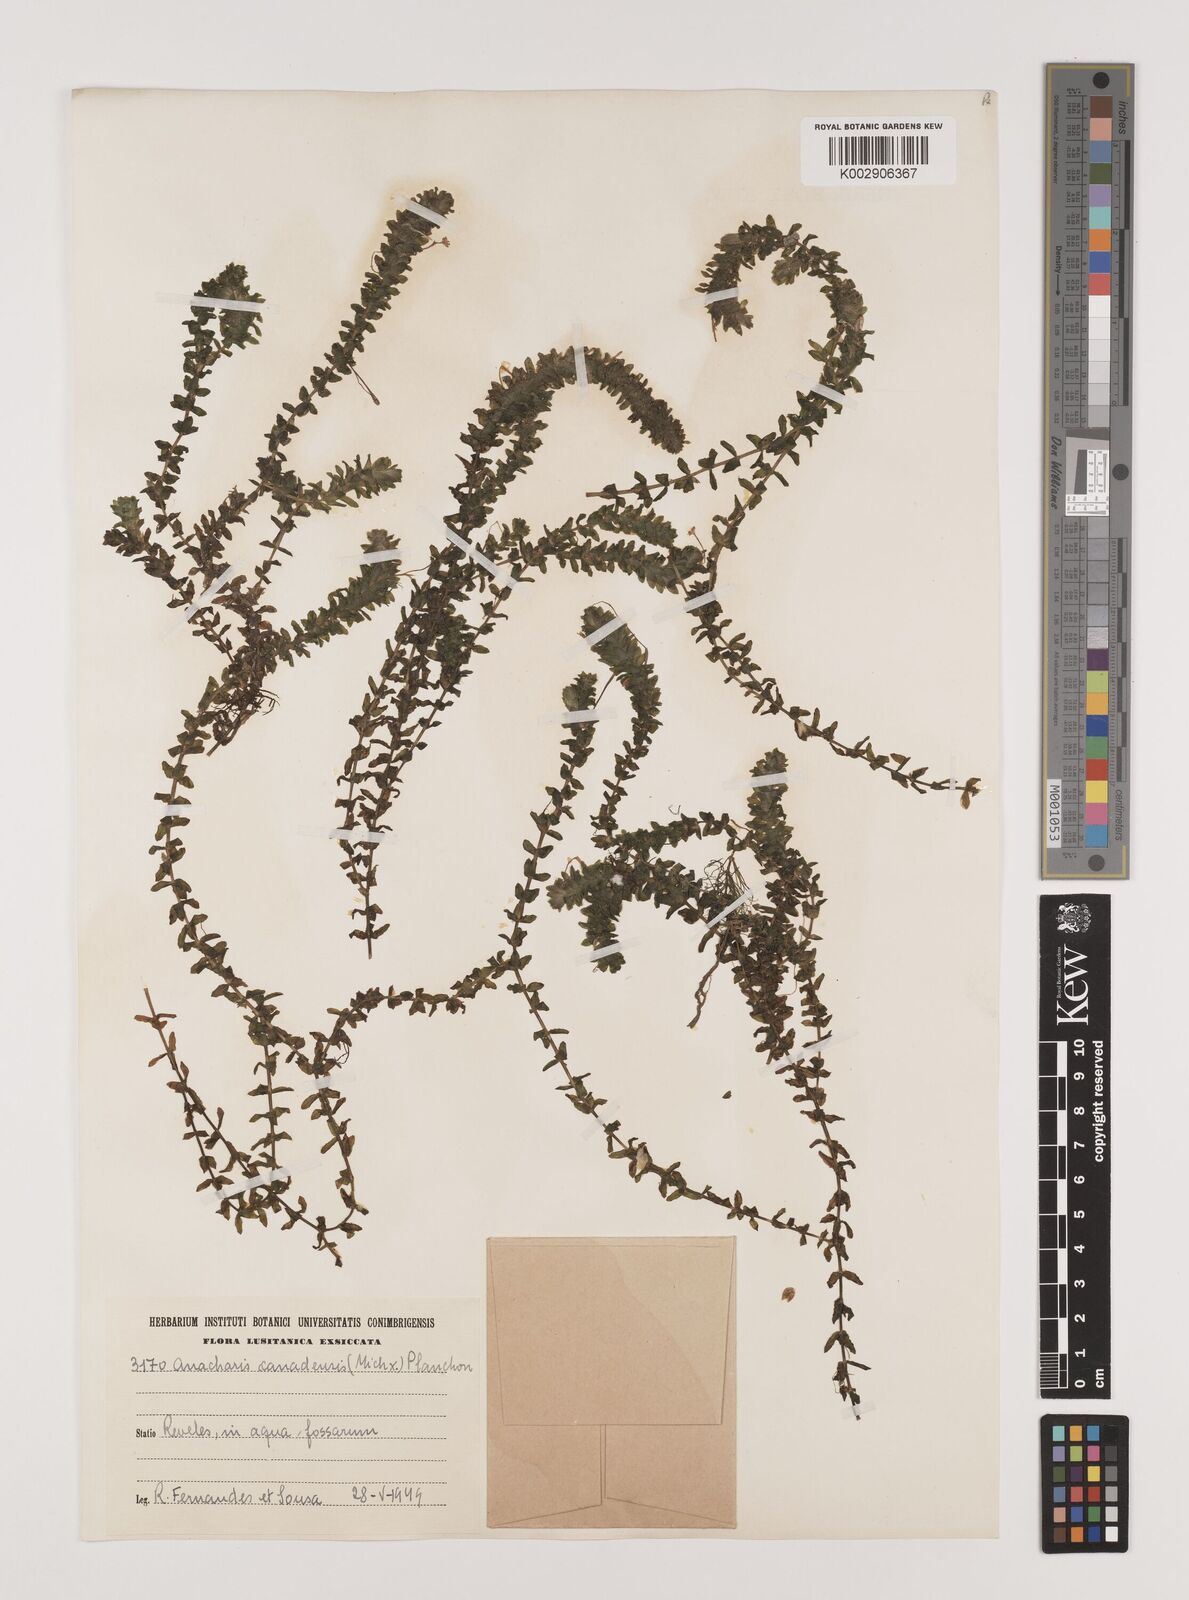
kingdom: Plantae
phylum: Tracheophyta
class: Liliopsida
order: Alismatales
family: Hydrocharitaceae
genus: Elodea
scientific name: Elodea canadensis
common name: Canadian waterweed
